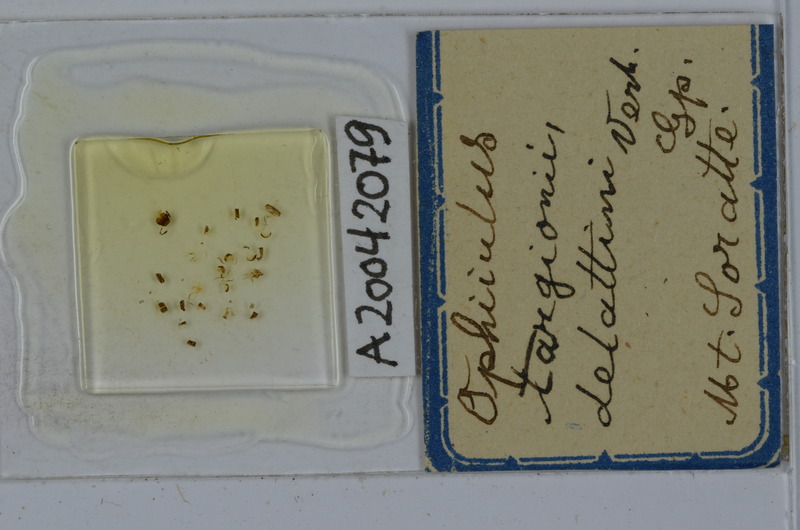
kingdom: Animalia
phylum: Arthropoda
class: Diplopoda
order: Julida
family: Julidae
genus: Ophyiulus
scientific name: Ophyiulus targionii
